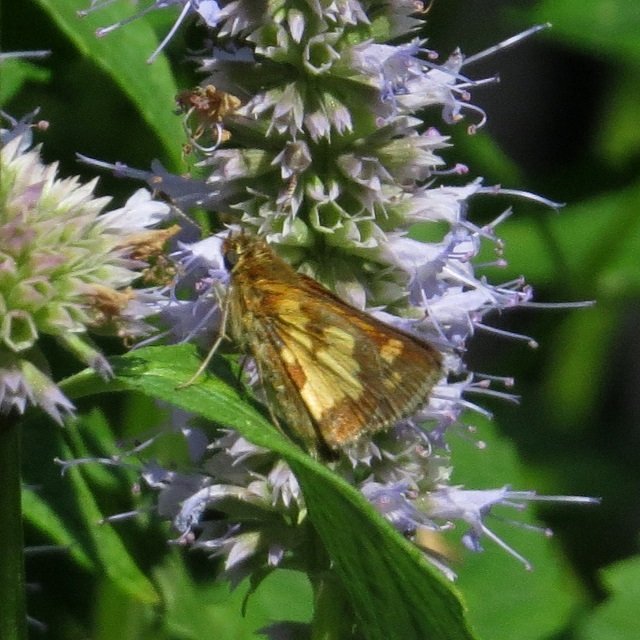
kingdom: Animalia
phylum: Arthropoda
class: Insecta
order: Lepidoptera
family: Hesperiidae
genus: Polites
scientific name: Polites coras
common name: Peck's Skipper
